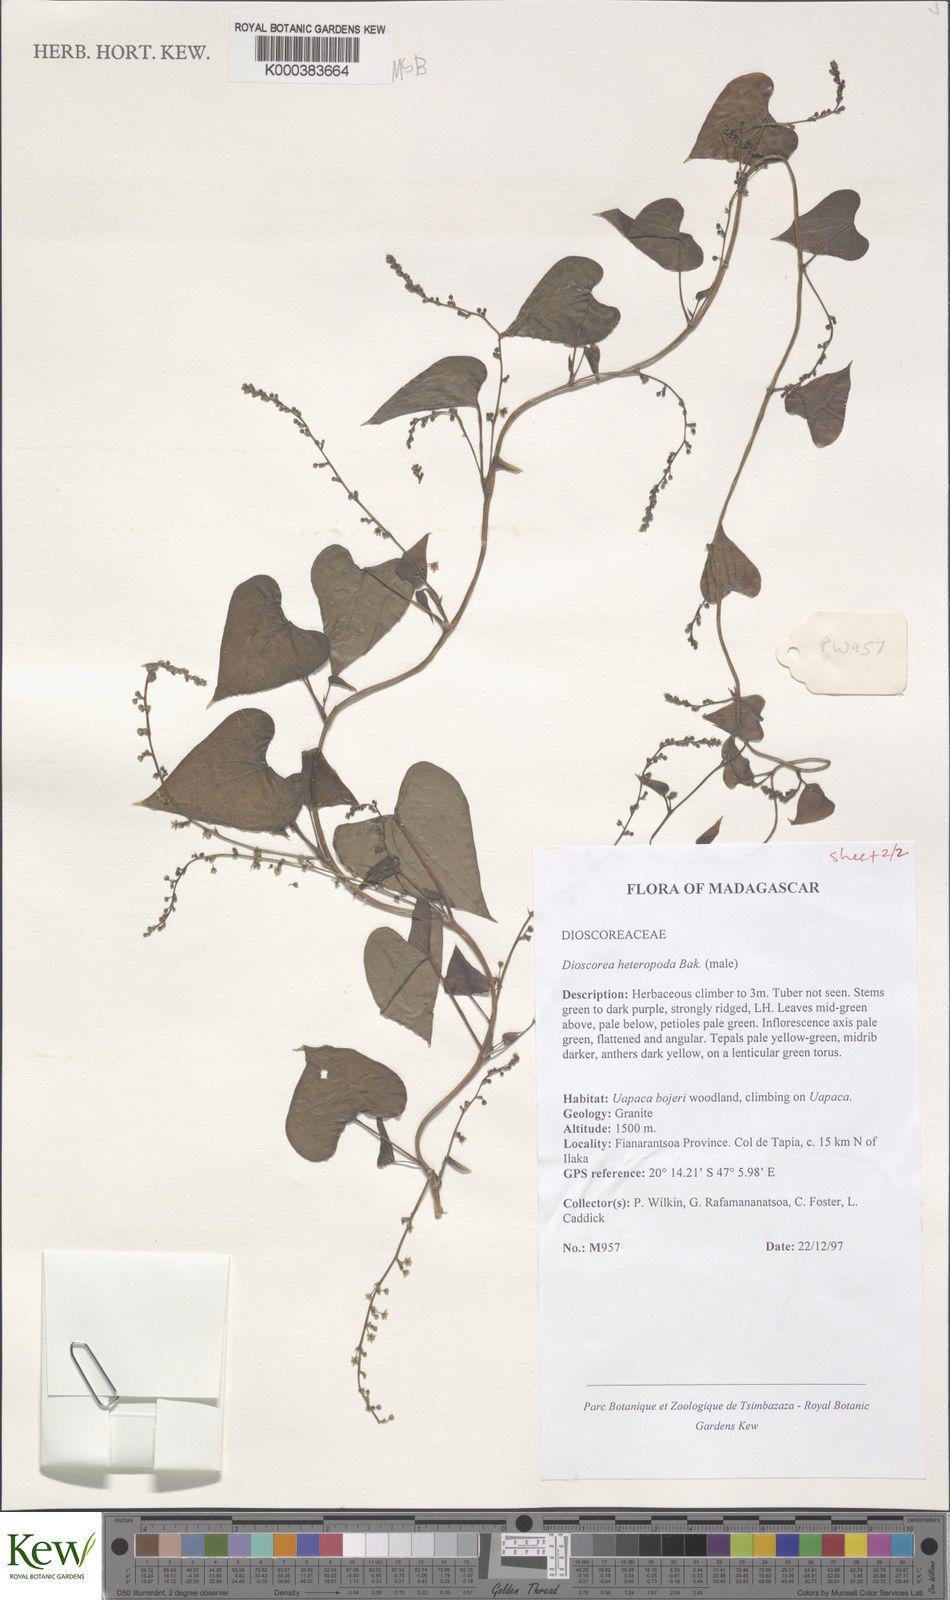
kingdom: Plantae
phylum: Tracheophyta
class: Liliopsida
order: Dioscoreales
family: Dioscoreaceae
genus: Dioscorea
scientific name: Dioscorea heteropoda
